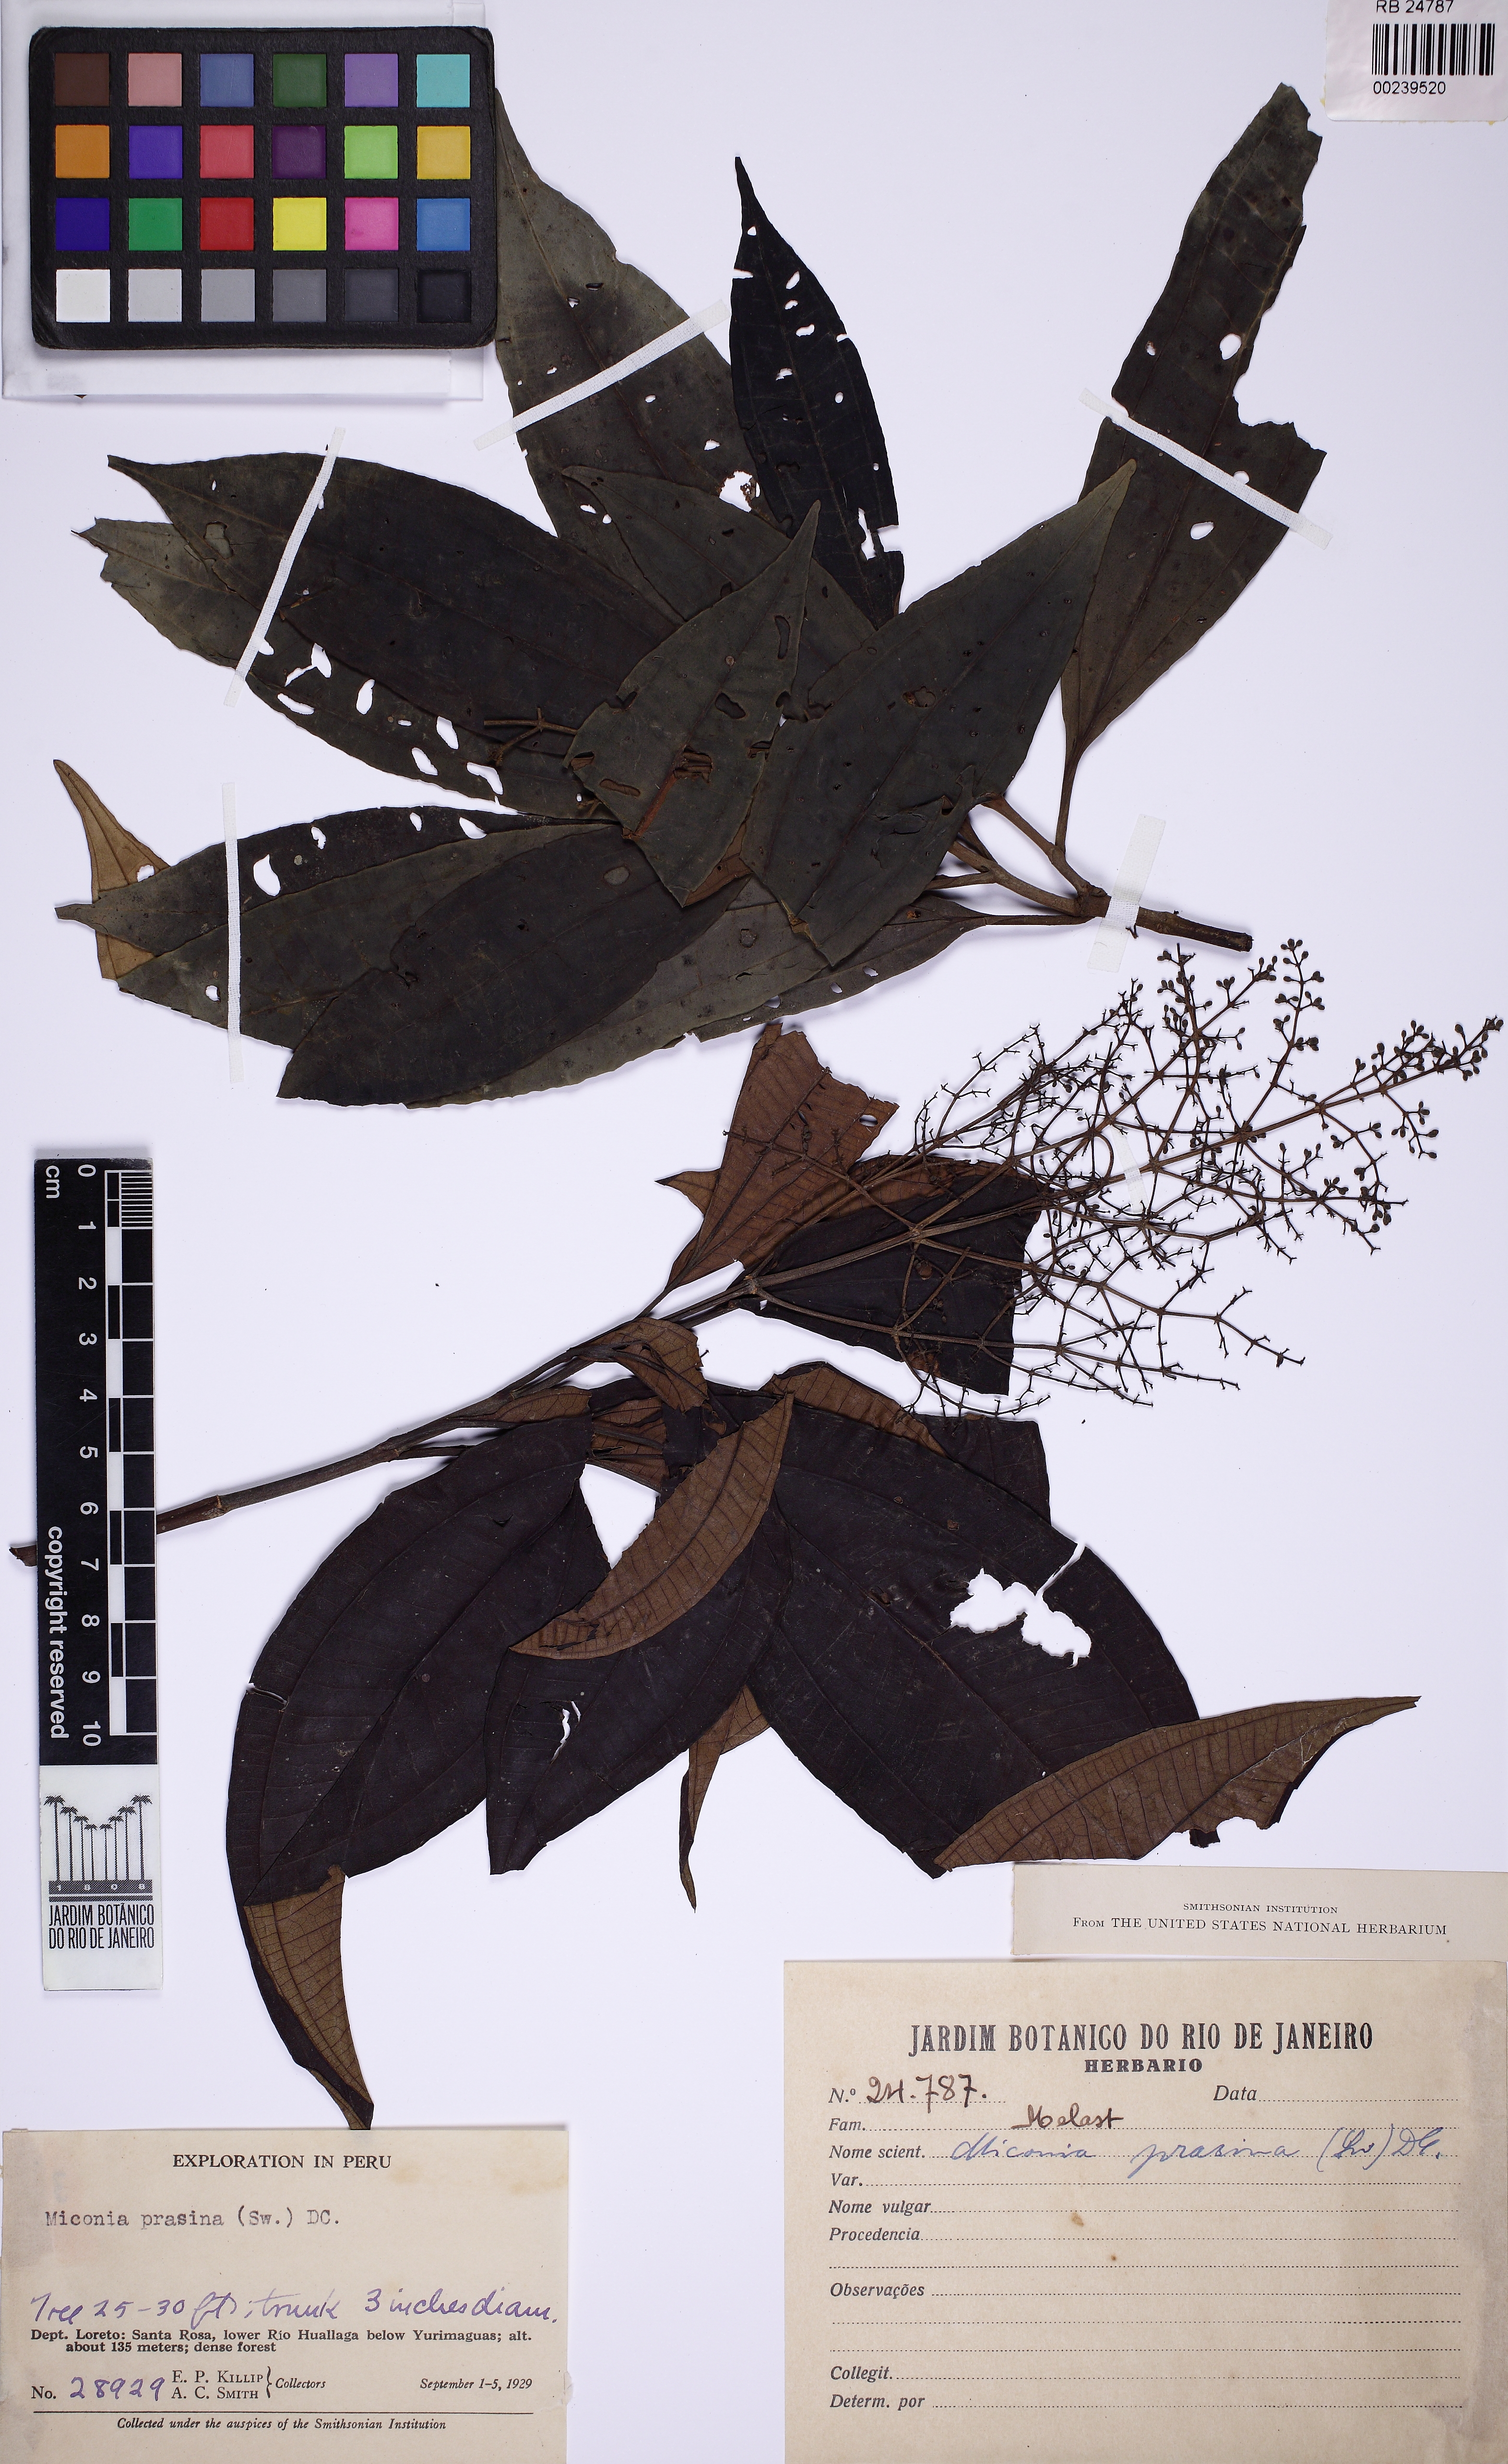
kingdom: Plantae
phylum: Tracheophyta
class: Magnoliopsida
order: Myrtales
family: Melastomataceae
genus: Miconia
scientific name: Miconia prasina
